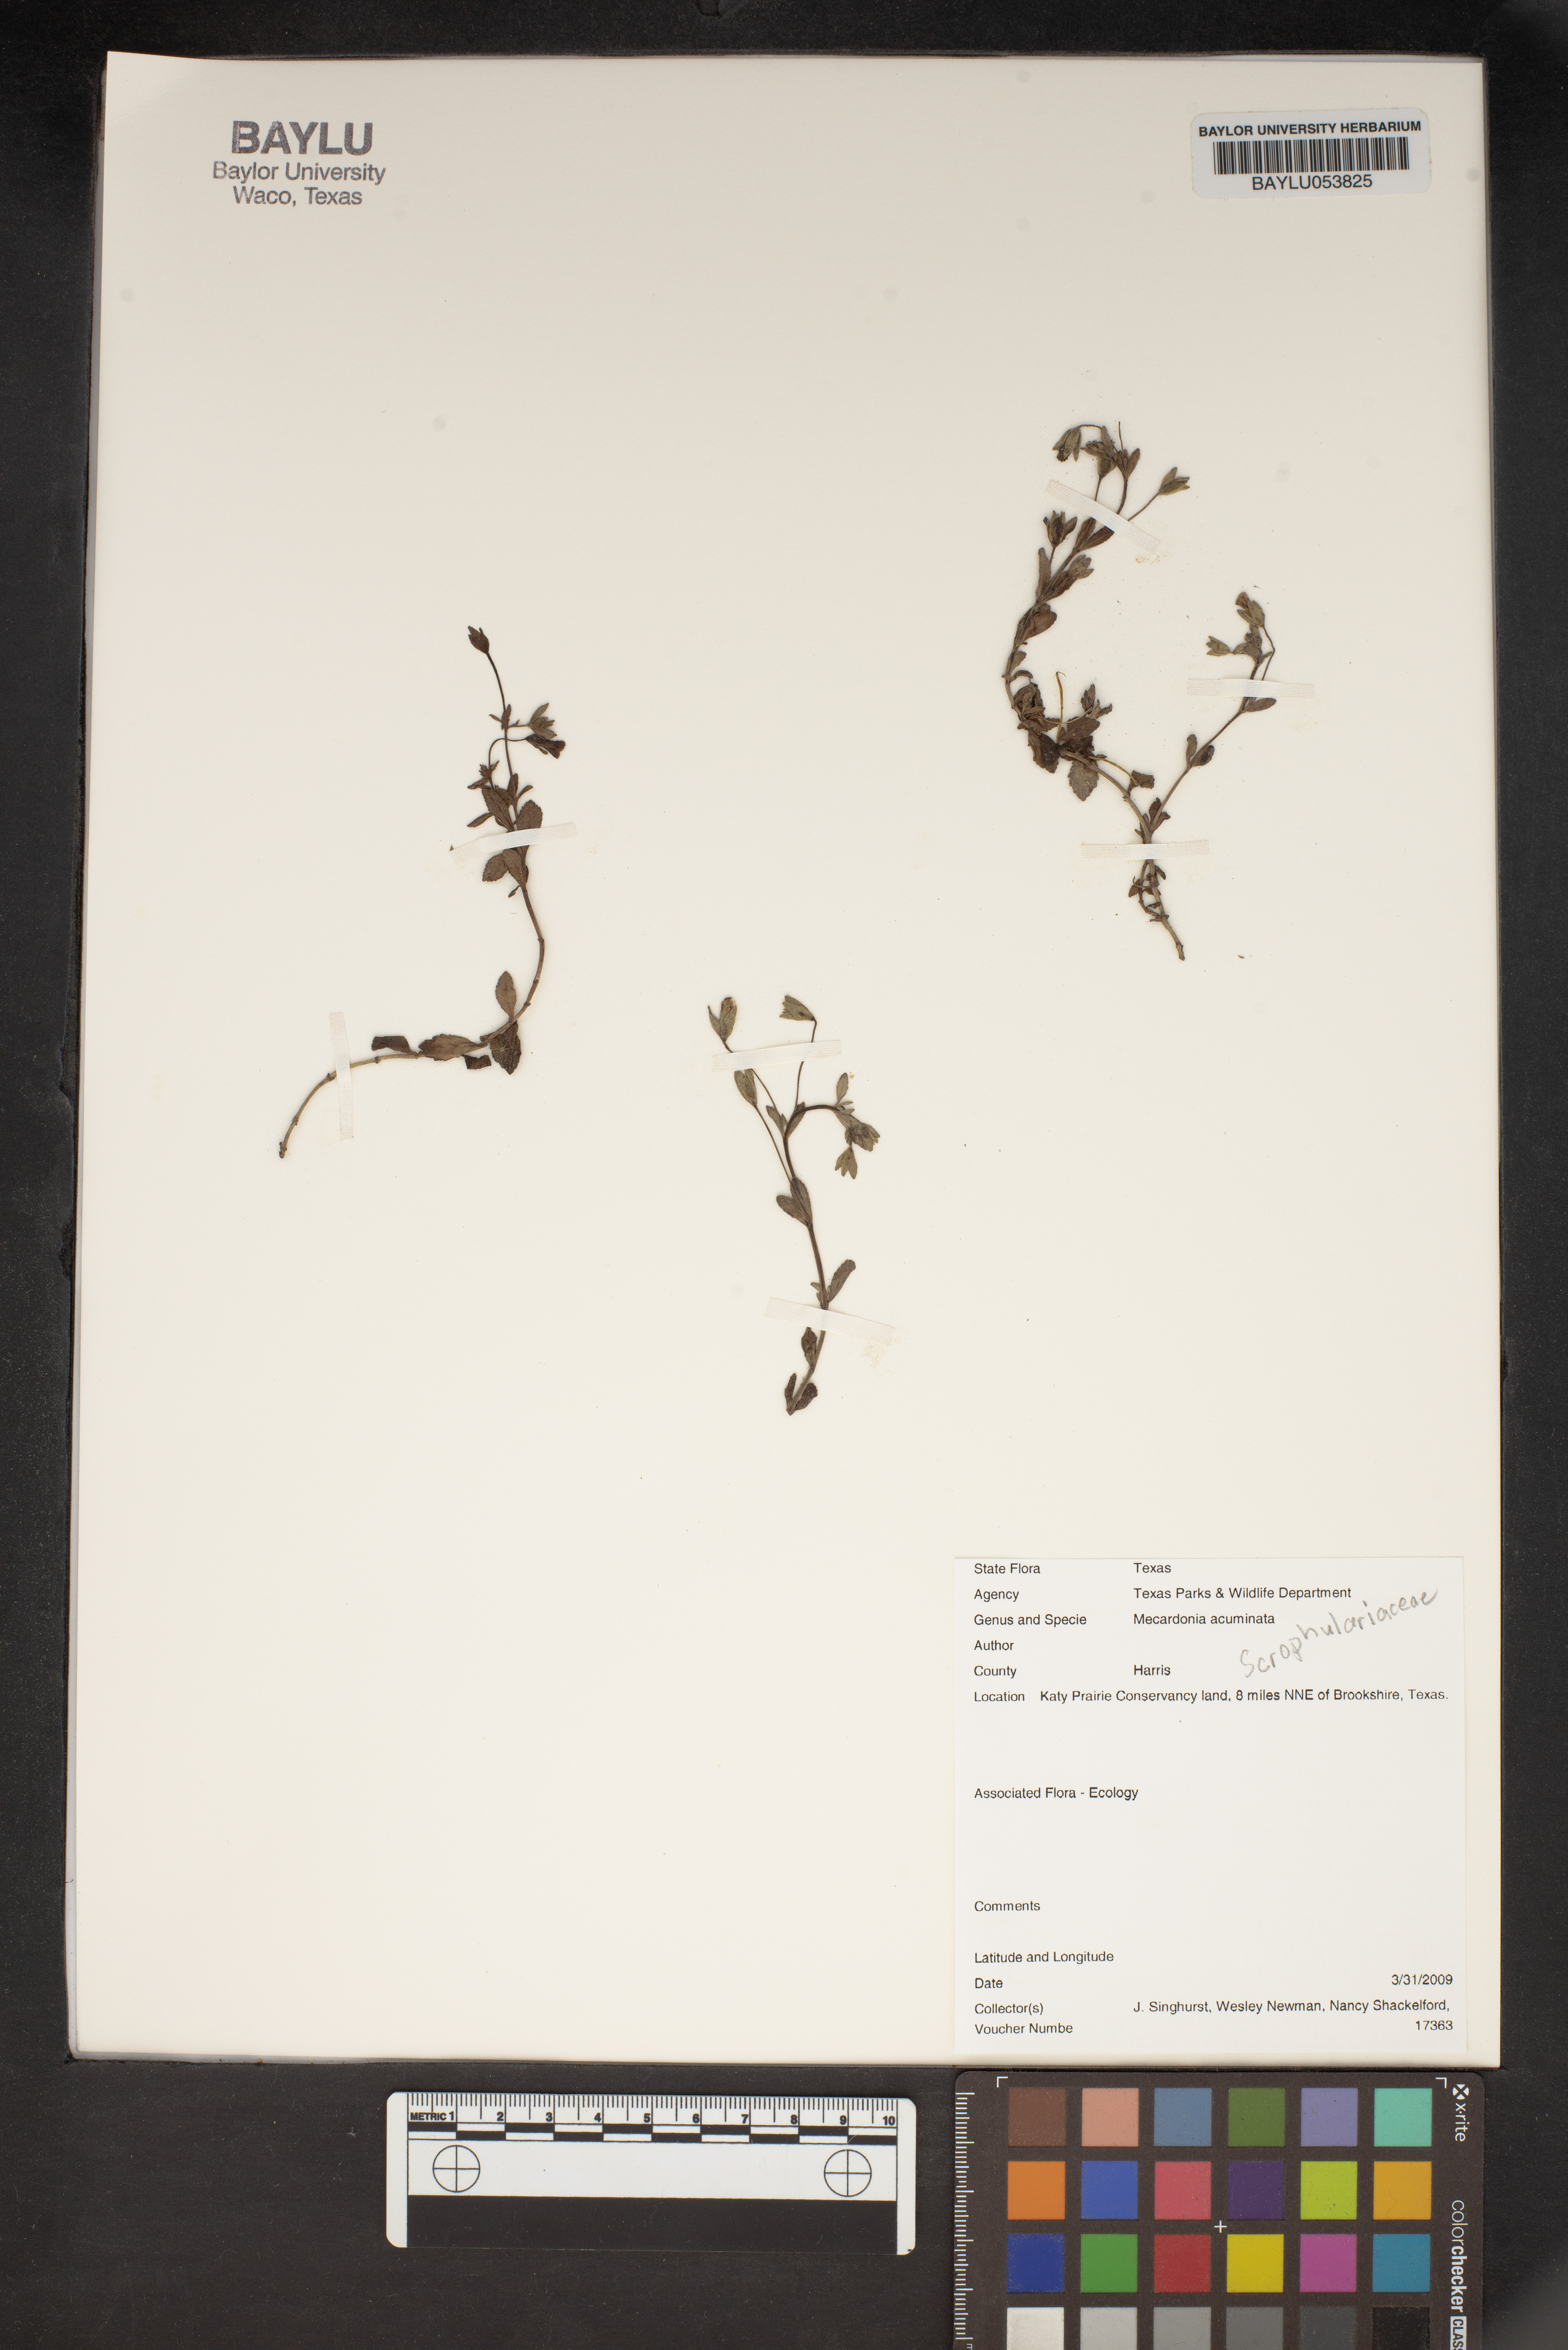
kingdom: Plantae
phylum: Tracheophyta
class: Magnoliopsida
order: Lamiales
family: Plantaginaceae
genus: Mecardonia
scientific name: Mecardonia acuminata
